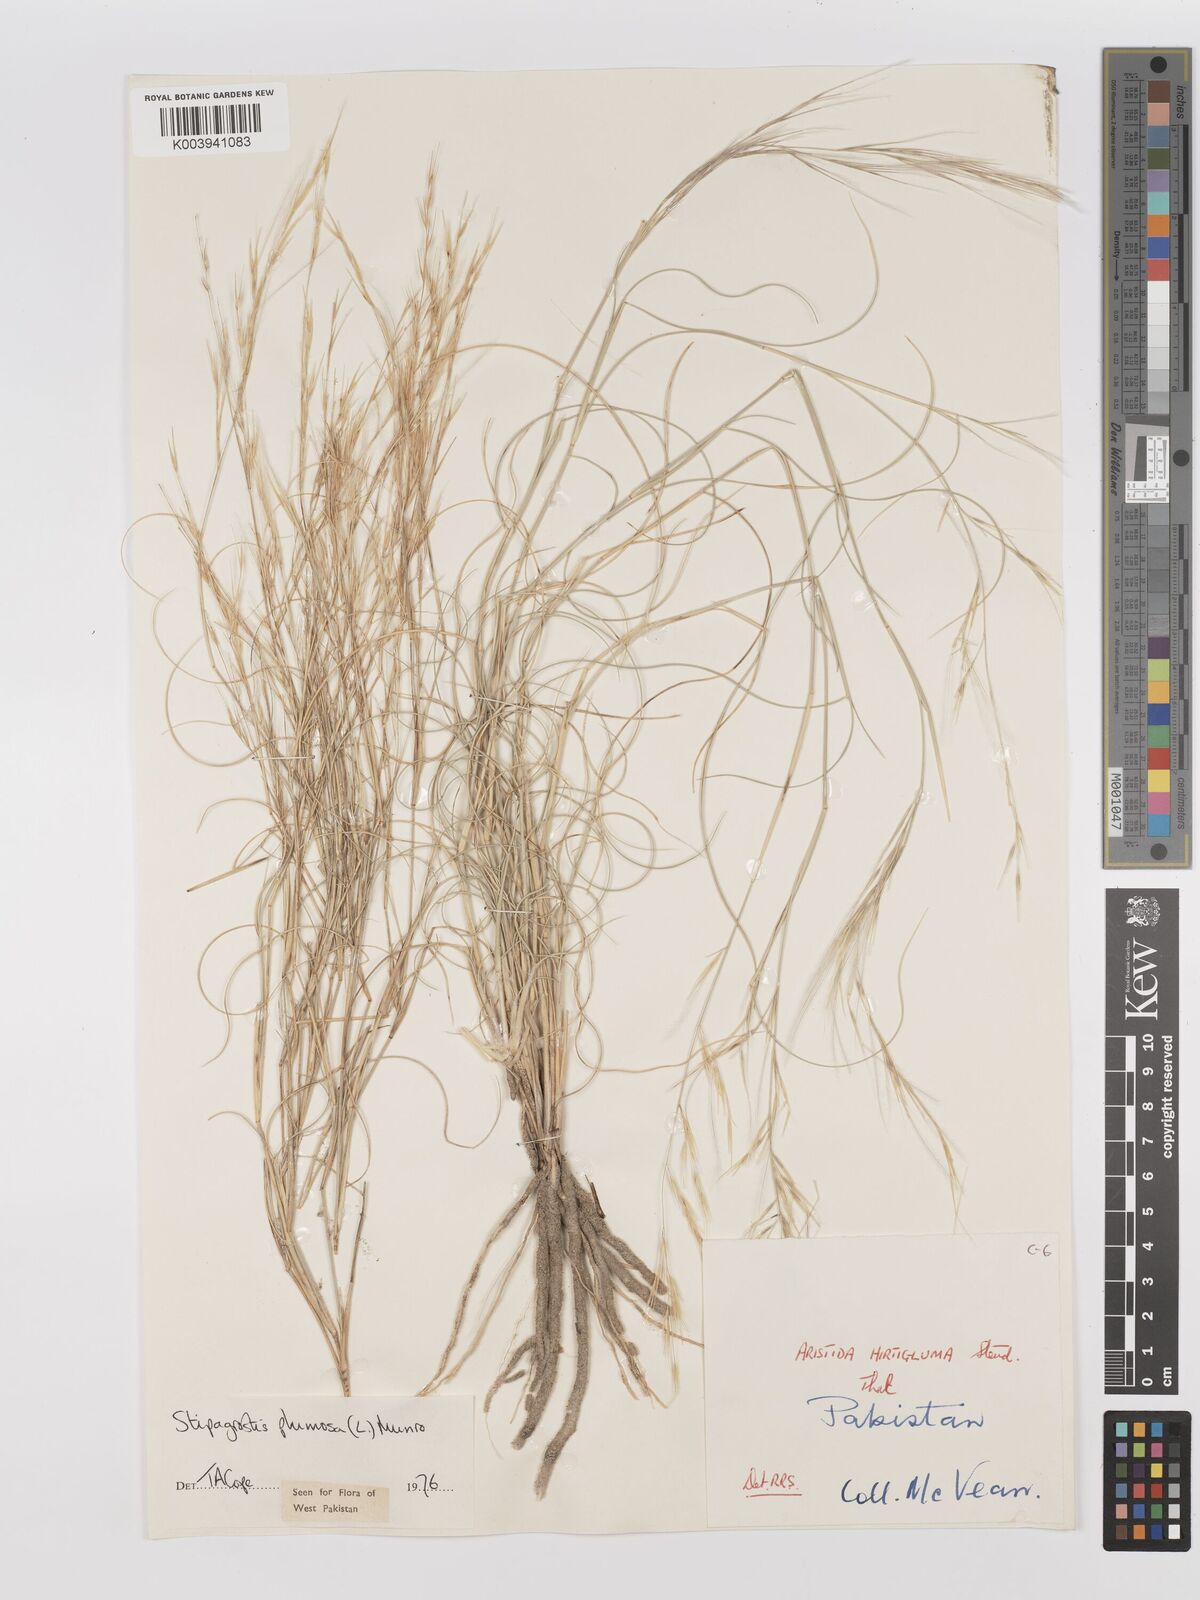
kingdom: Plantae
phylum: Tracheophyta
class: Liliopsida
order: Poales
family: Poaceae
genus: Stipagrostis
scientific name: Stipagrostis plumosa
